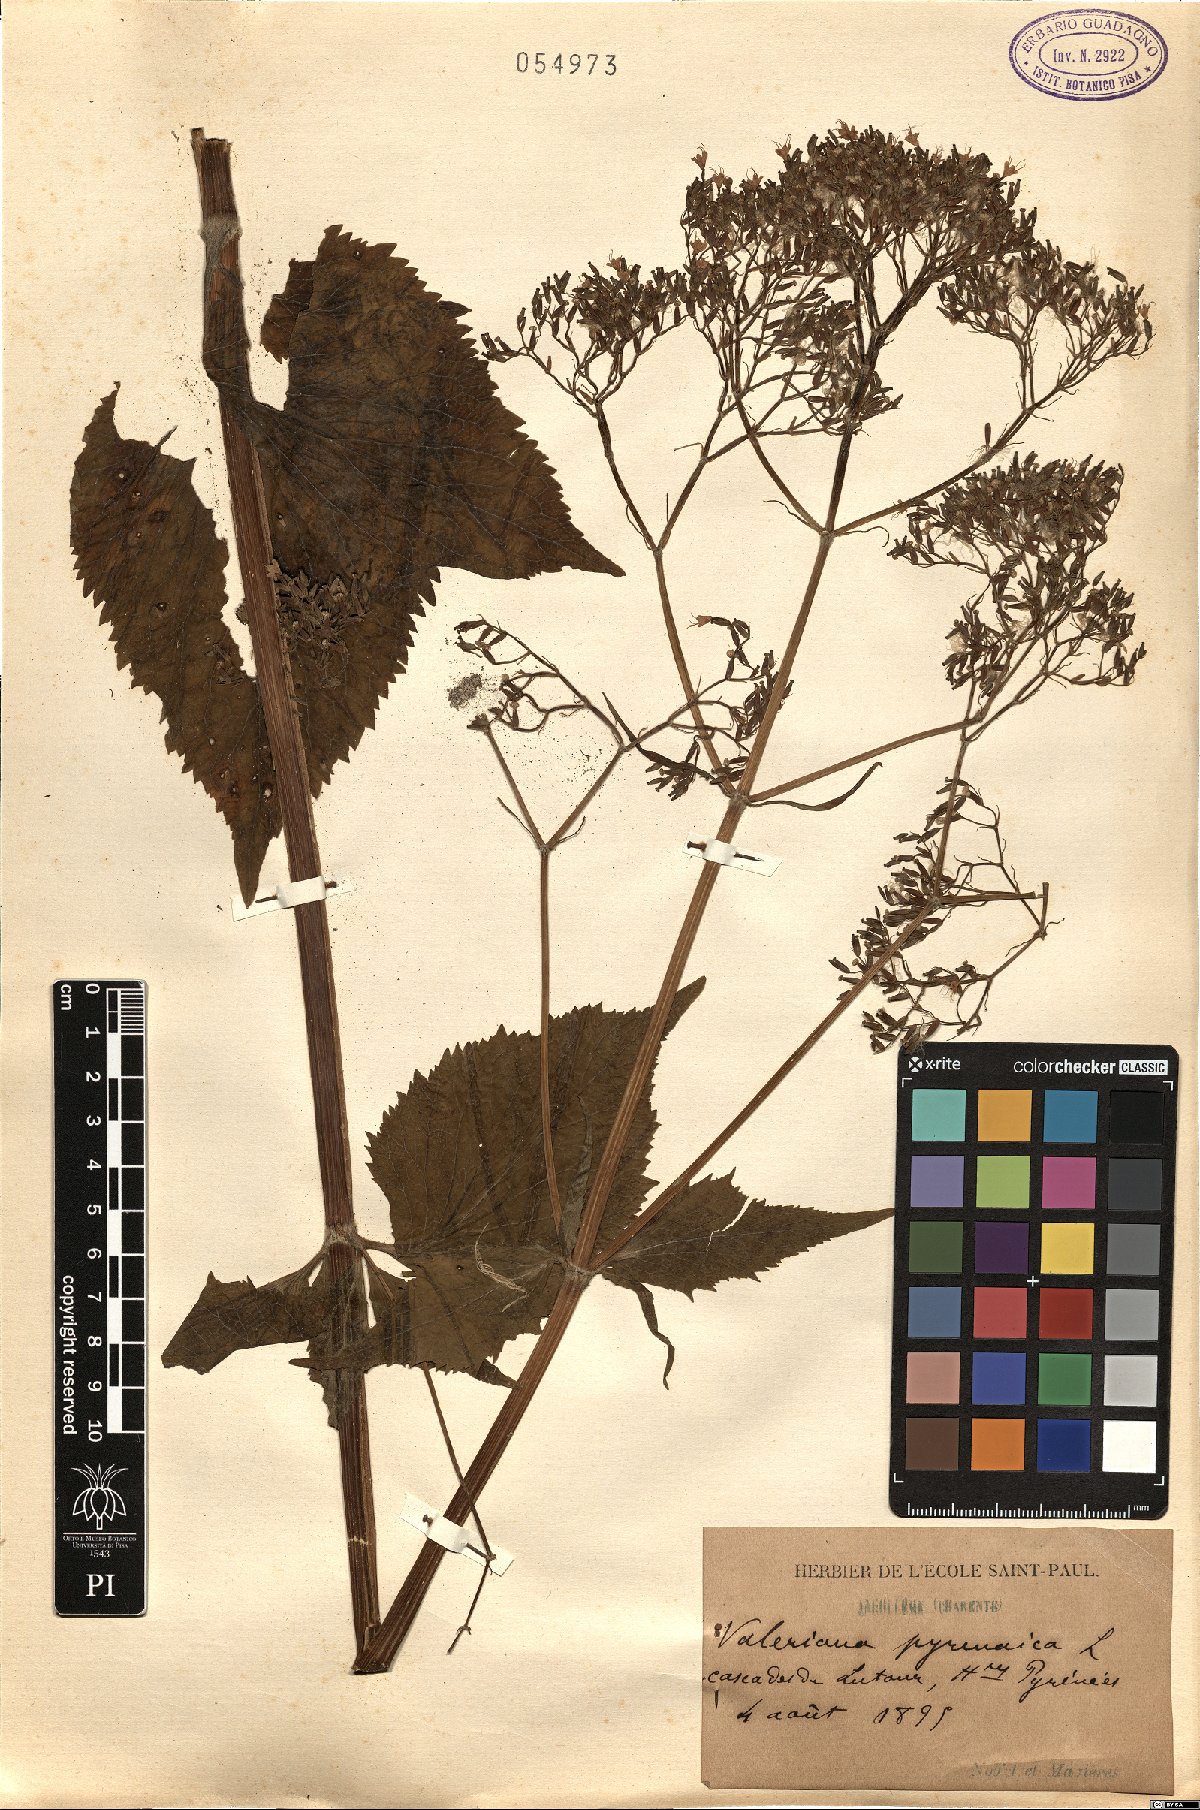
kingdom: Plantae
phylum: Tracheophyta
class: Magnoliopsida
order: Dipsacales
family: Caprifoliaceae
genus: Valeriana
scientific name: Valeriana pyrenaica
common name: Pyrenean valerian
